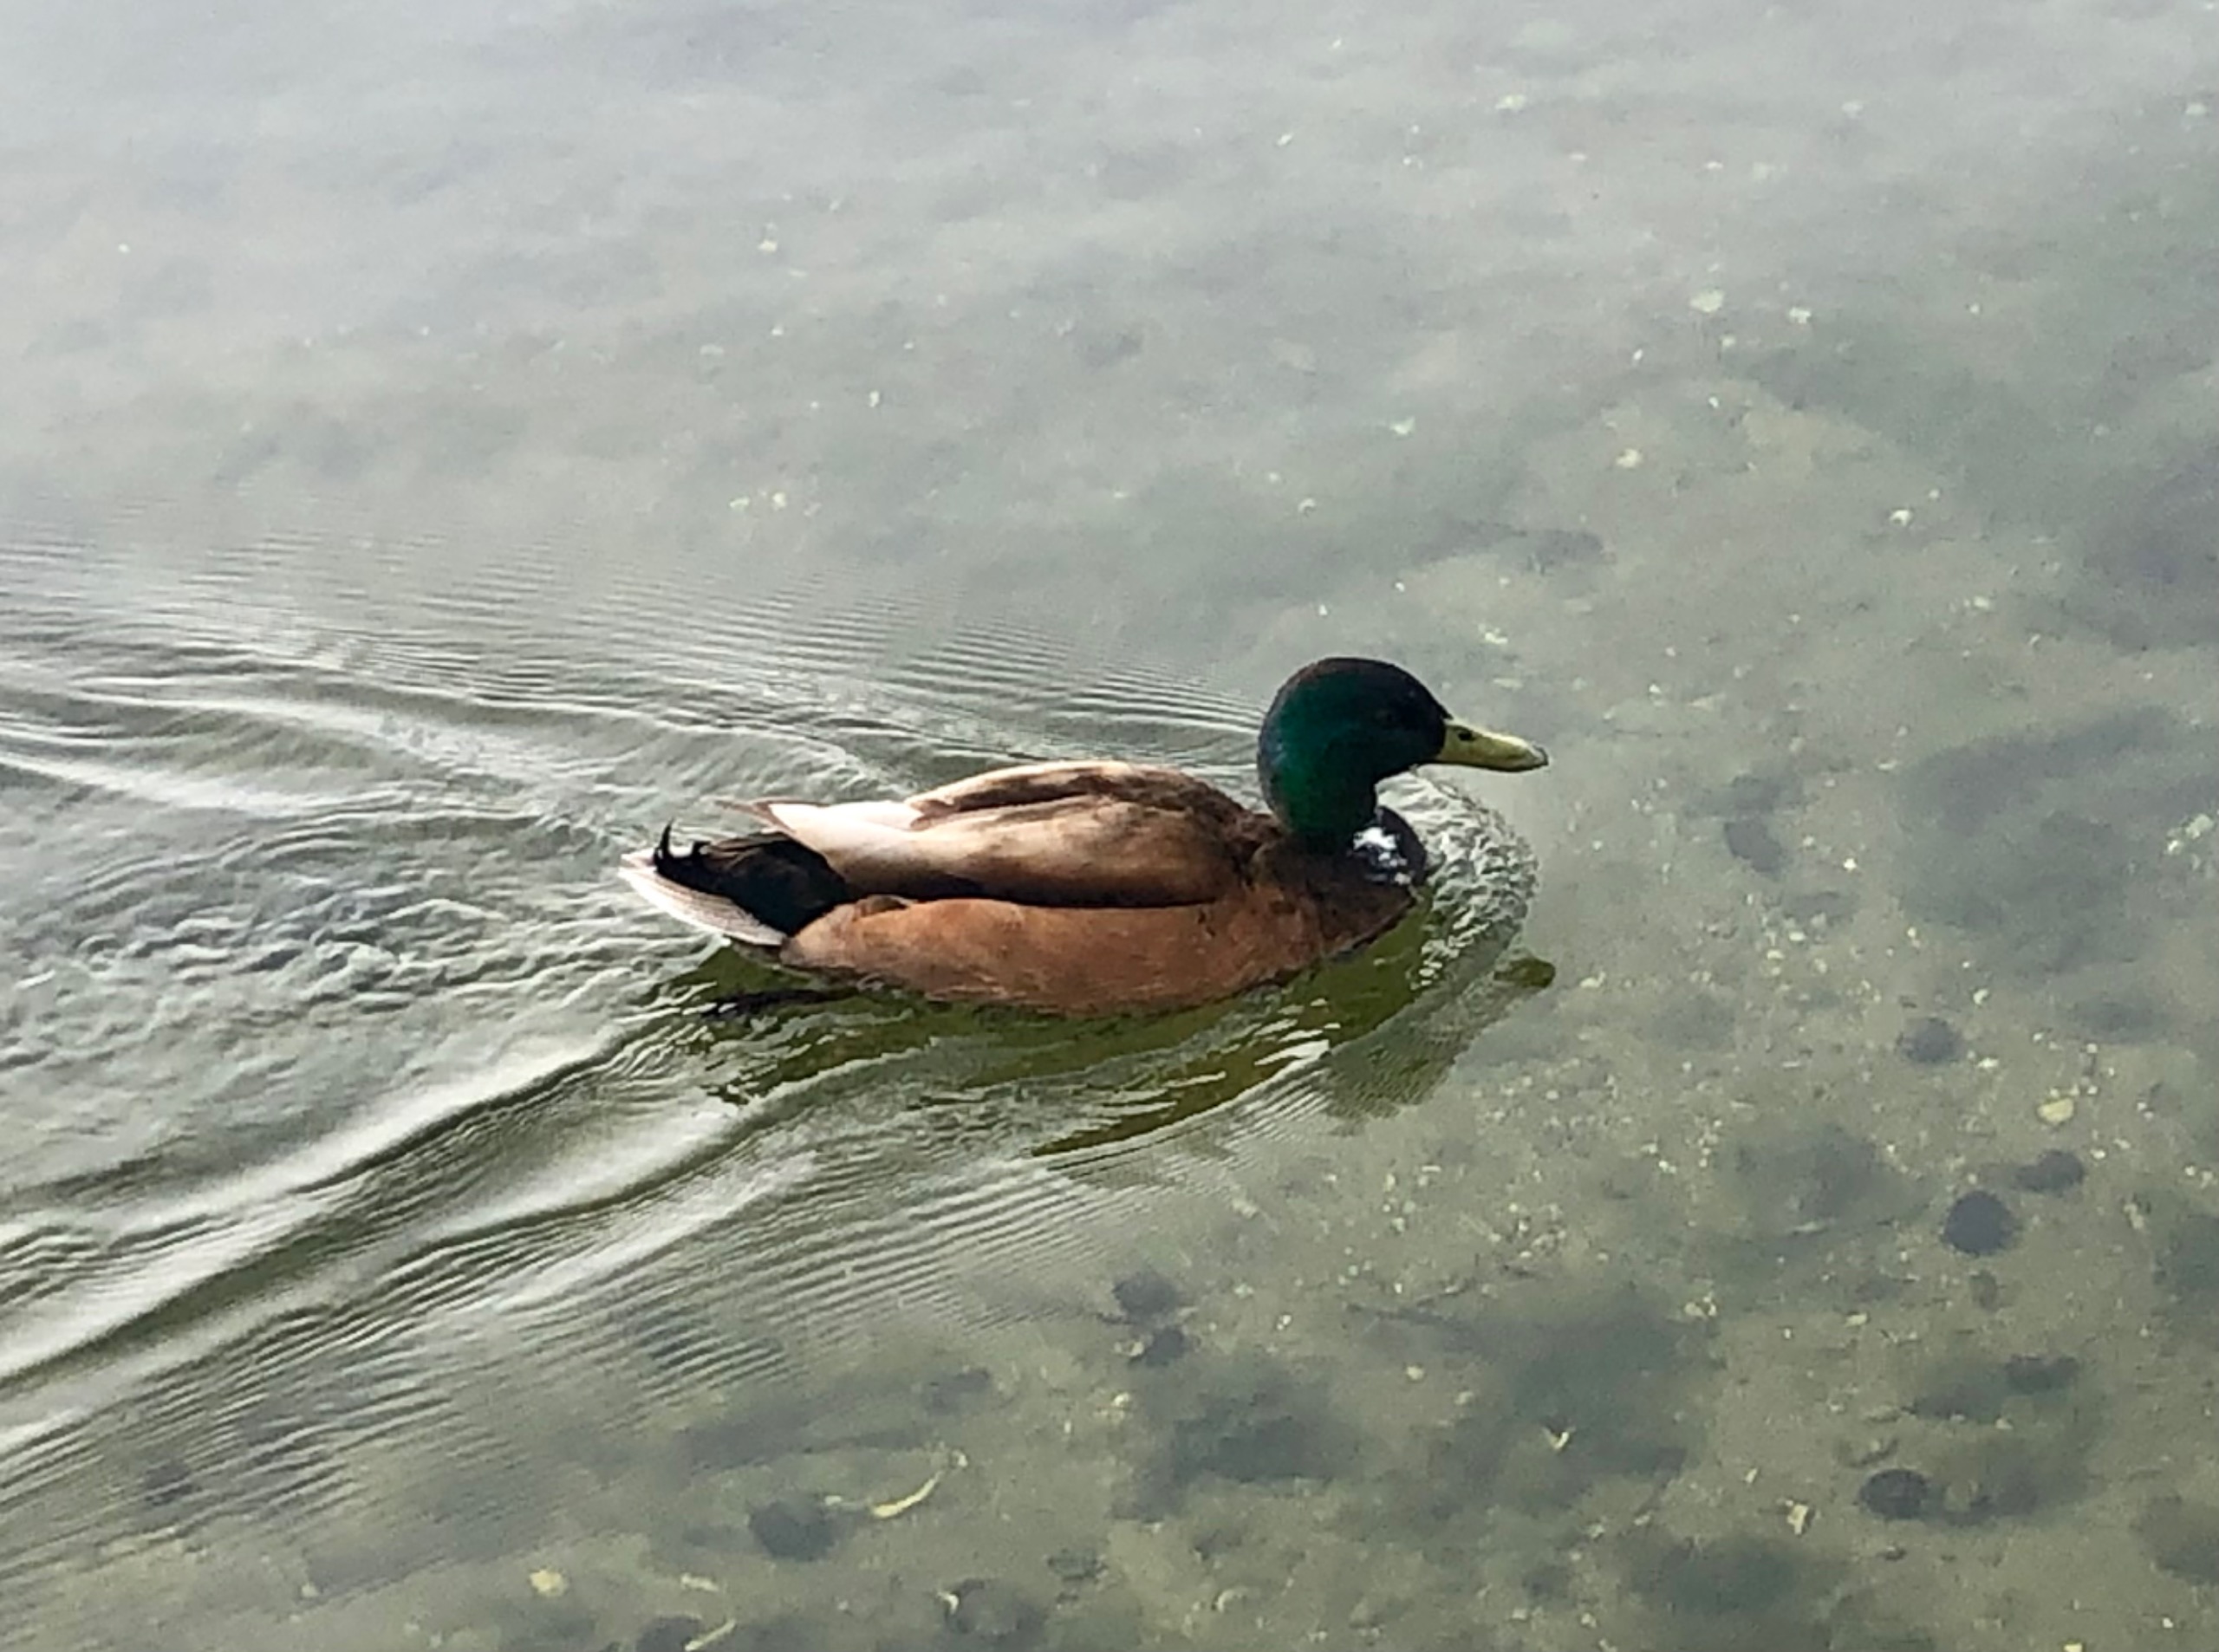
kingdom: Animalia
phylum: Chordata
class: Aves
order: Anseriformes
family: Anatidae
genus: Anas
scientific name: Anas platyrhynchos
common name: Gråand
